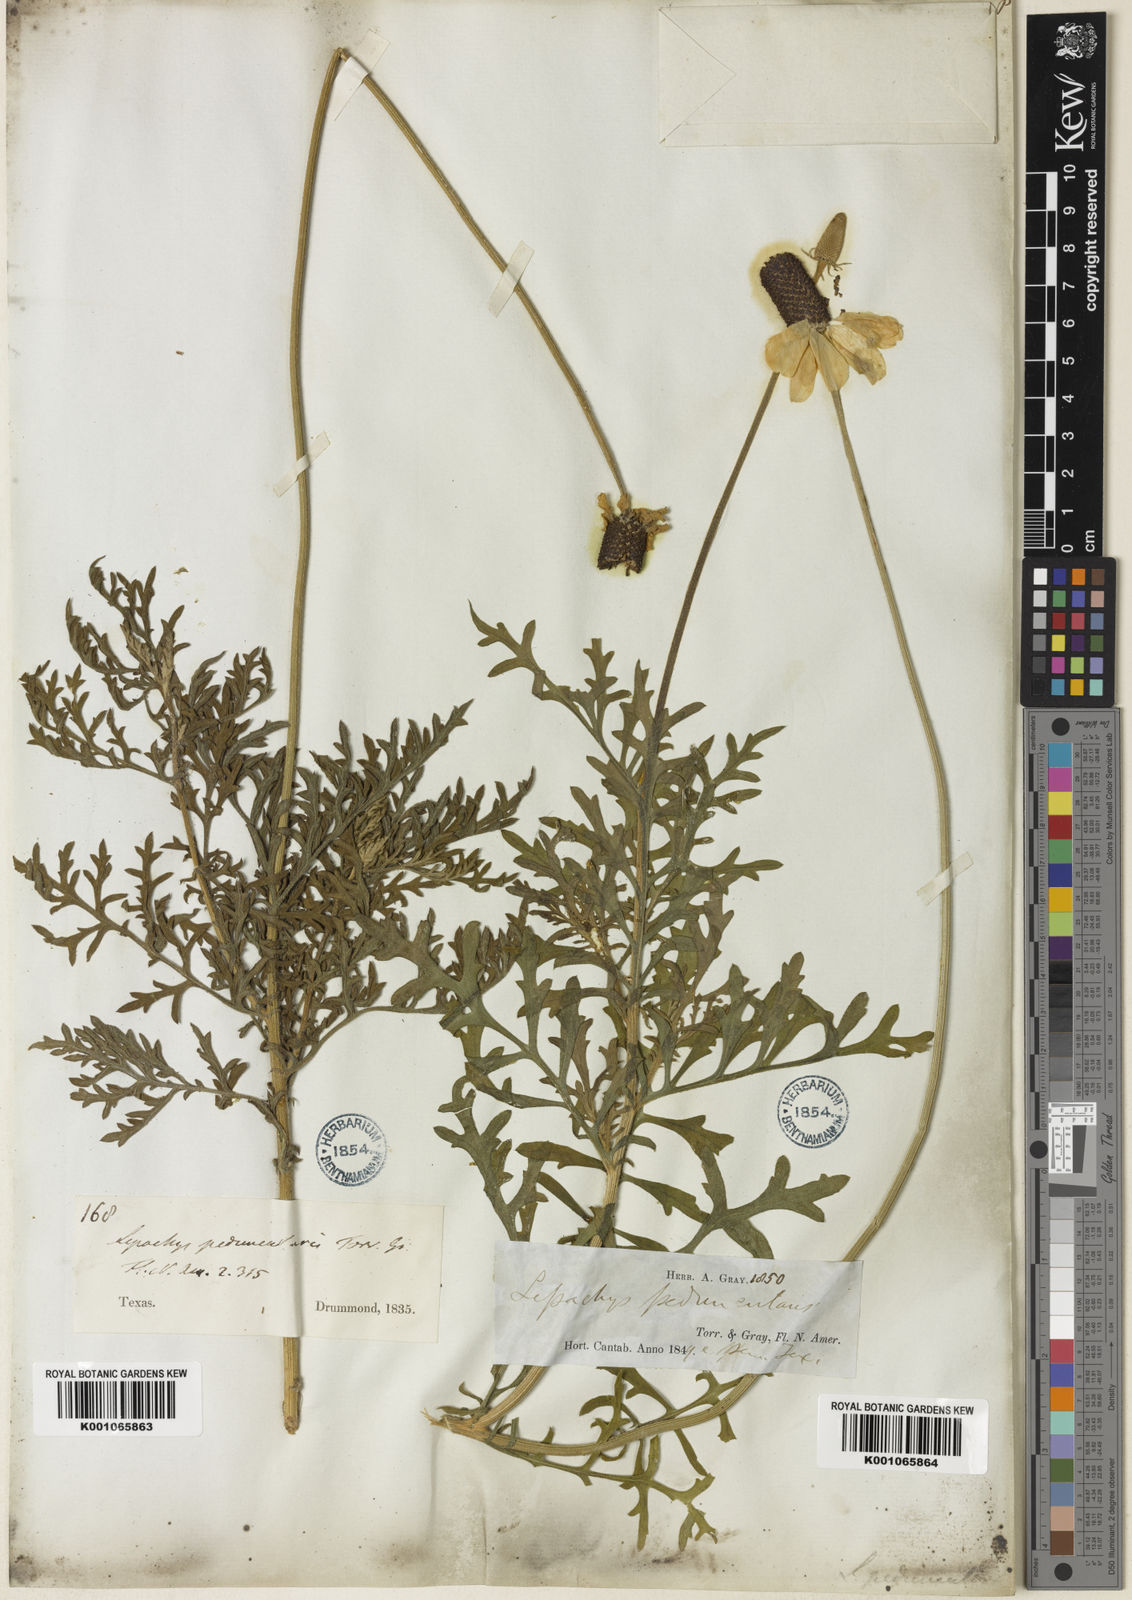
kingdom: Plantae
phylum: Tracheophyta
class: Magnoliopsida
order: Asterales
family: Asteraceae
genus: Ratibida
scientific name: Ratibida peduncularis
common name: Naked prairie-coneflower
